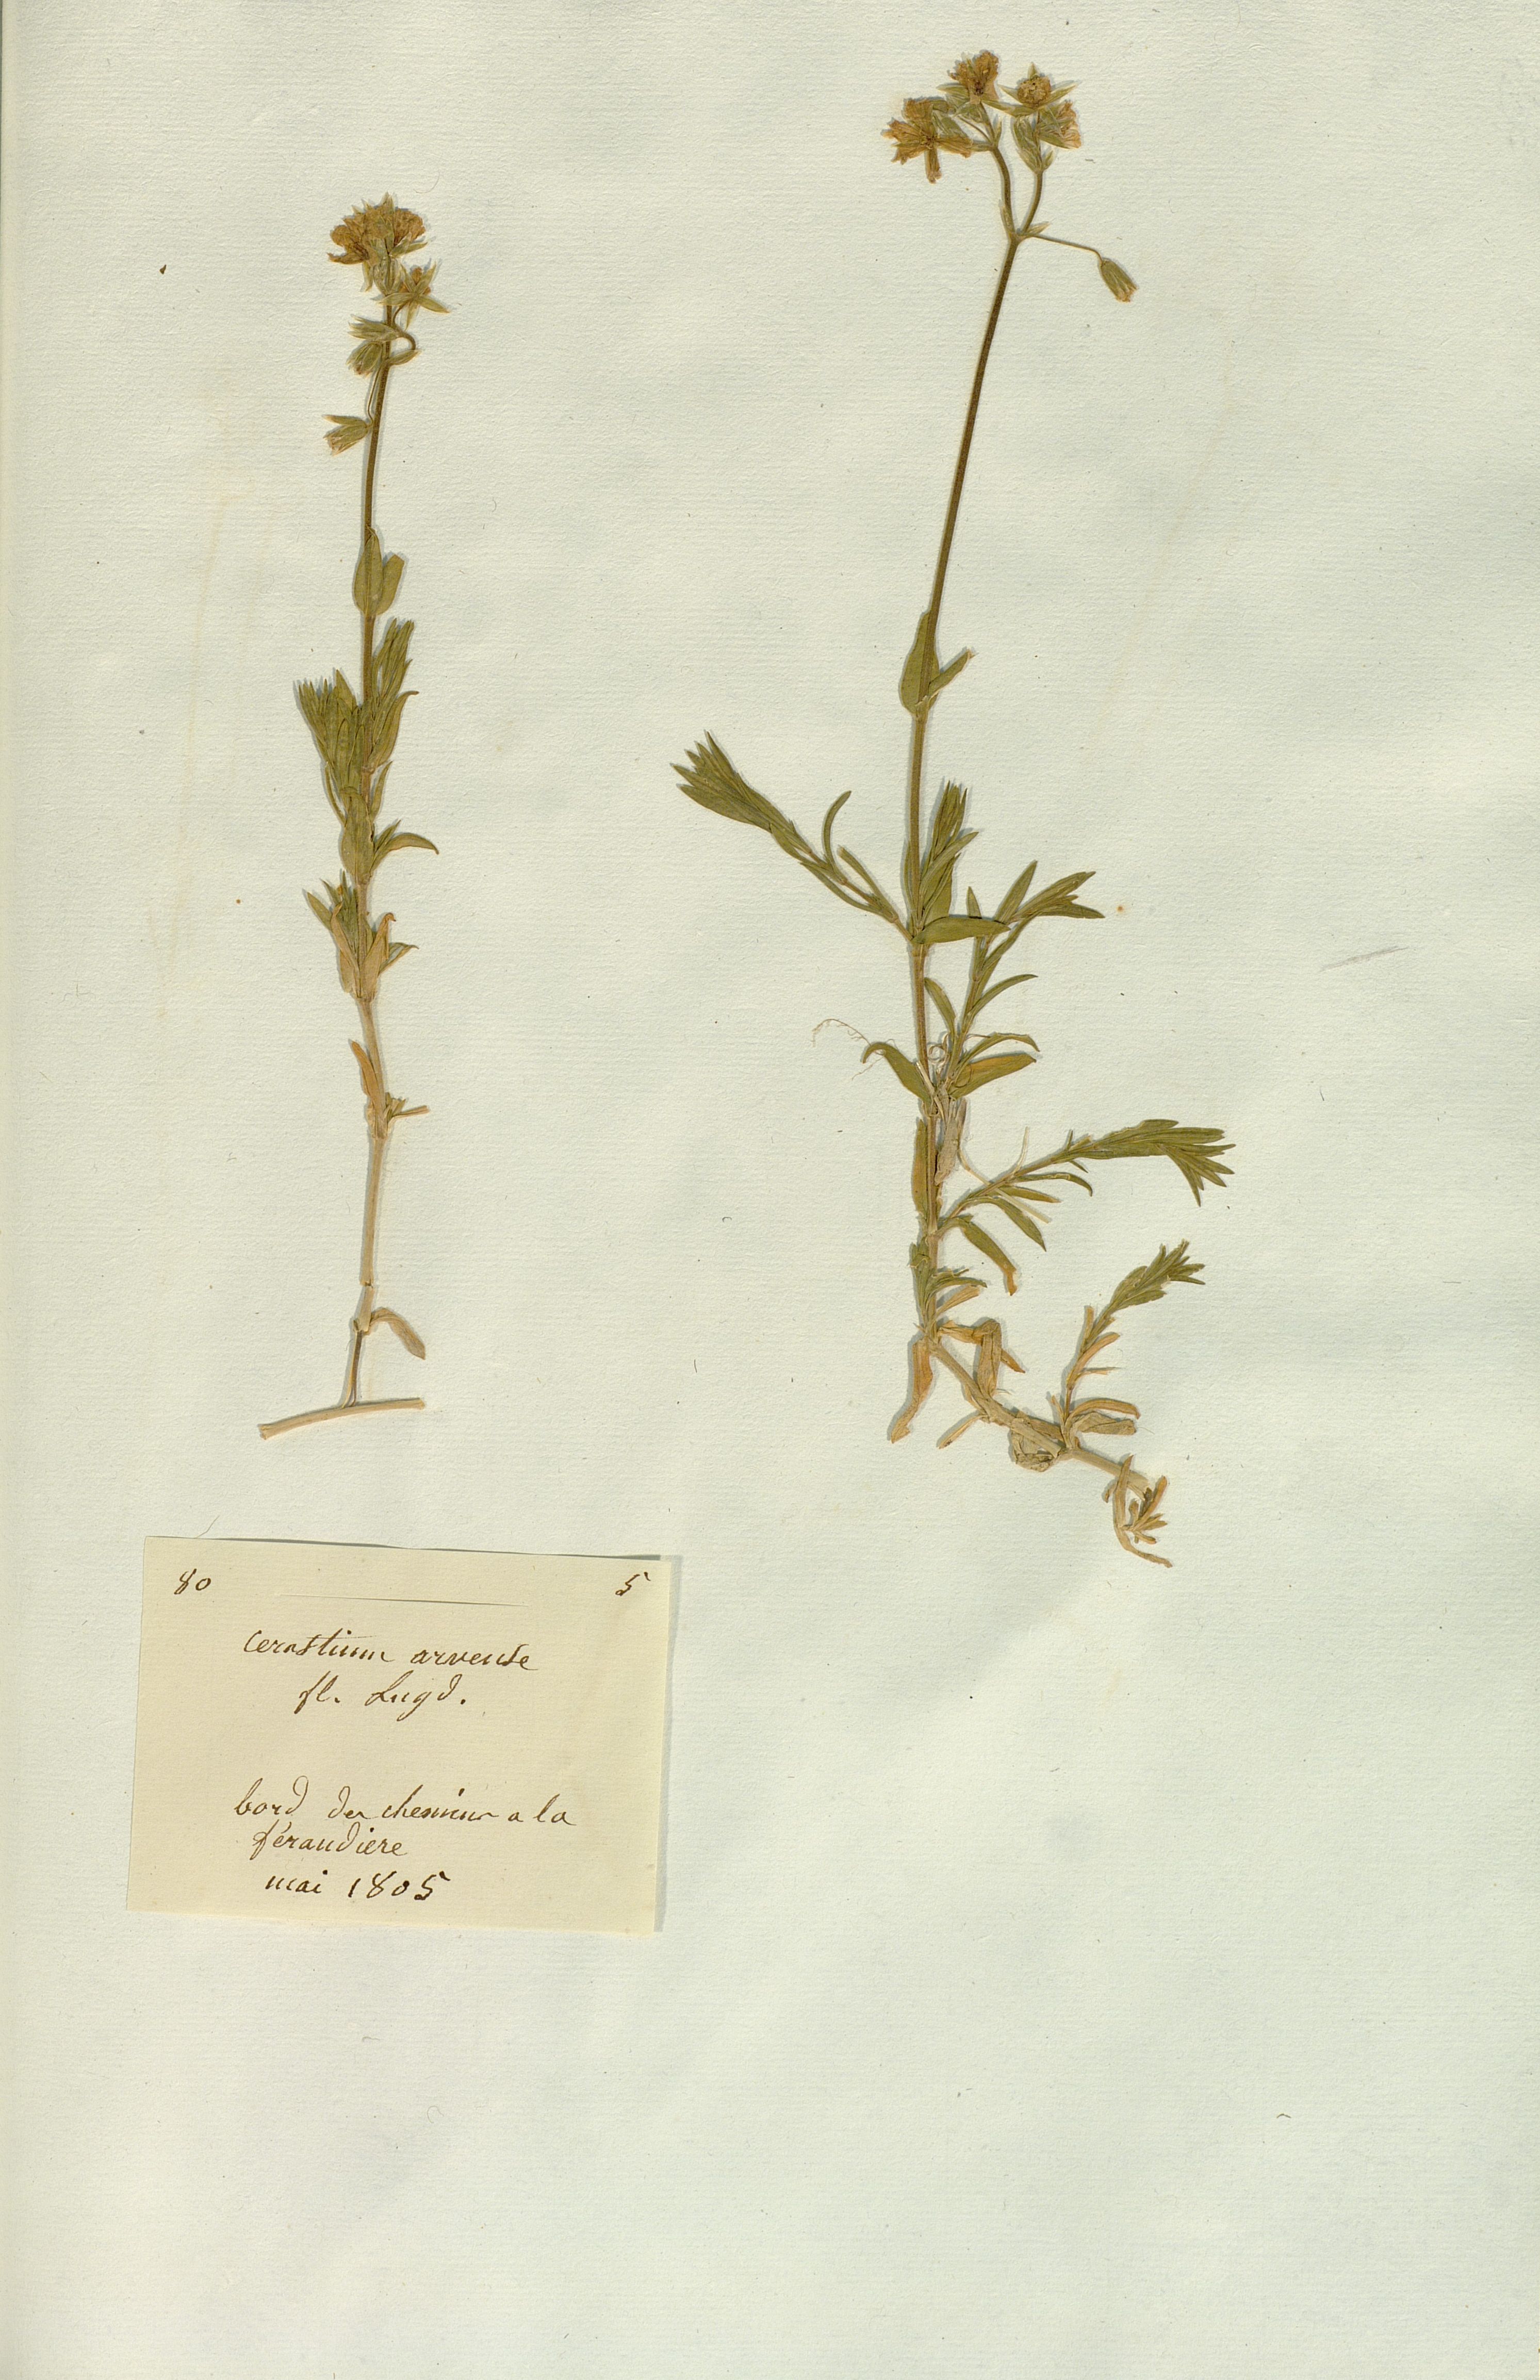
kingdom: Plantae
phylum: Tracheophyta
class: Magnoliopsida
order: Caryophyllales
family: Caryophyllaceae
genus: Cerastium
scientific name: Cerastium arvense
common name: Field mouse-ear
